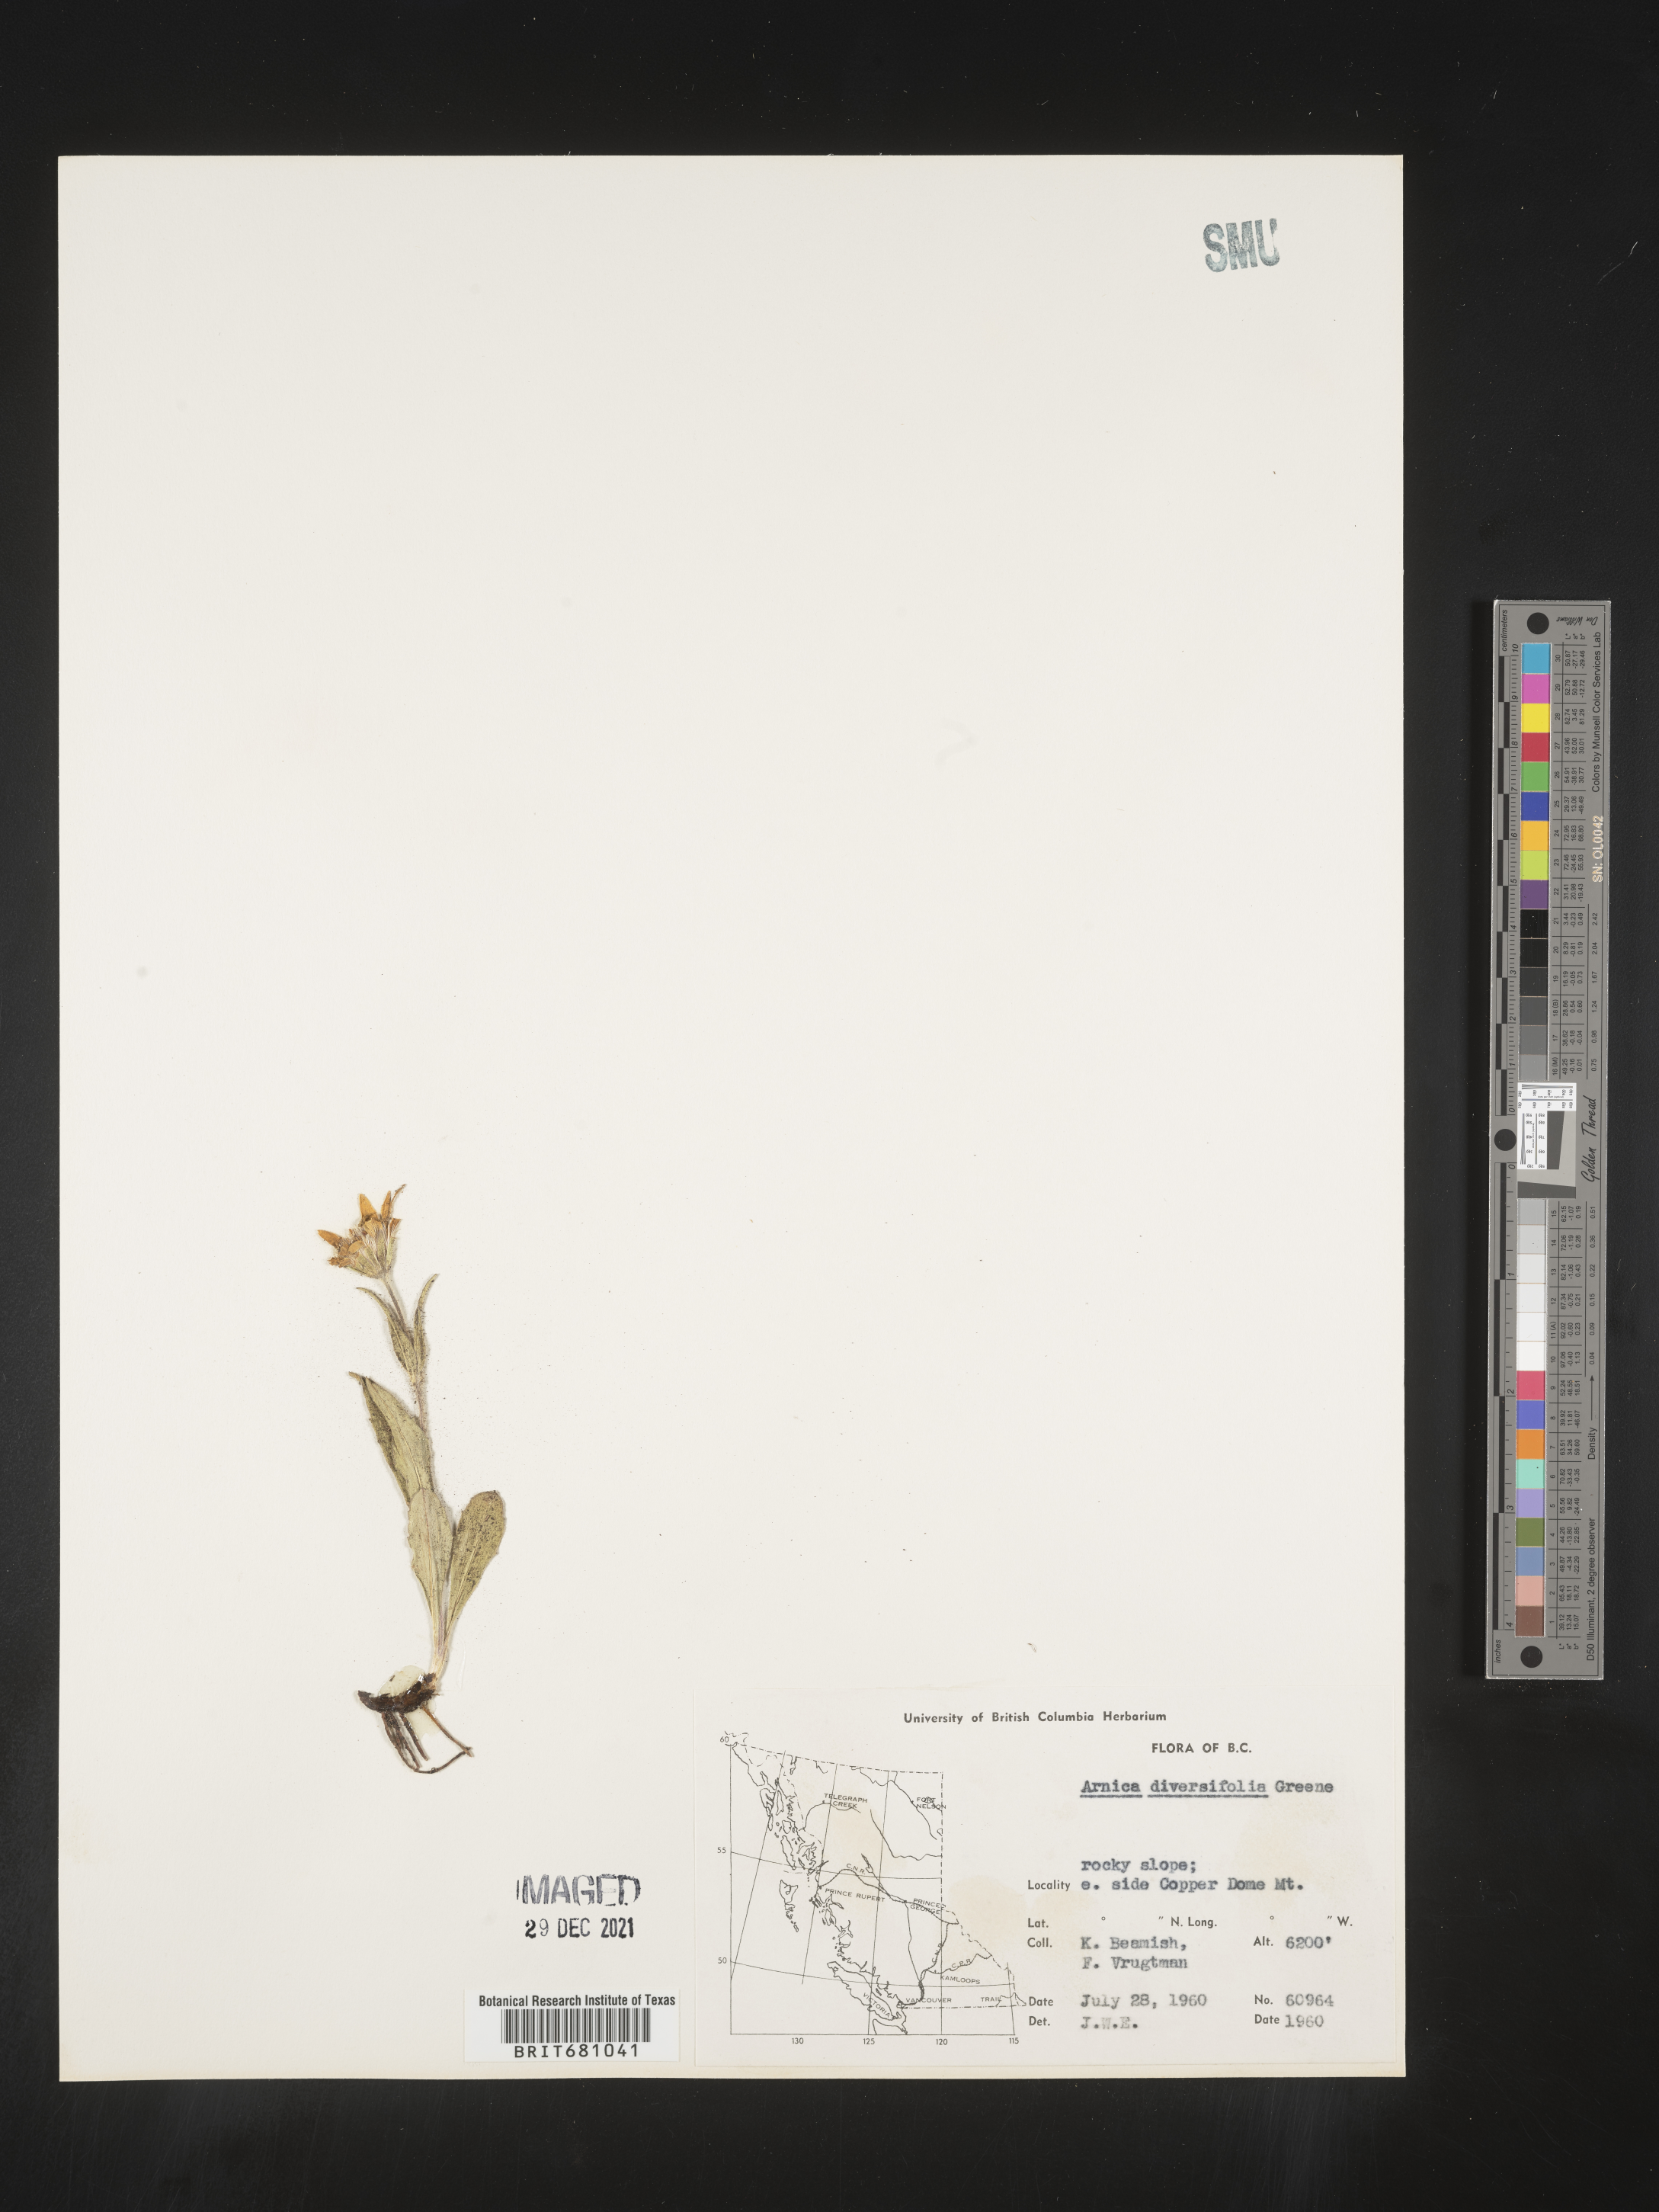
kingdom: Plantae
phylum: Tracheophyta
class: Magnoliopsida
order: Asterales
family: Asteraceae
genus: Arnica
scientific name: Arnica ovata
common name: Diverse arnica
